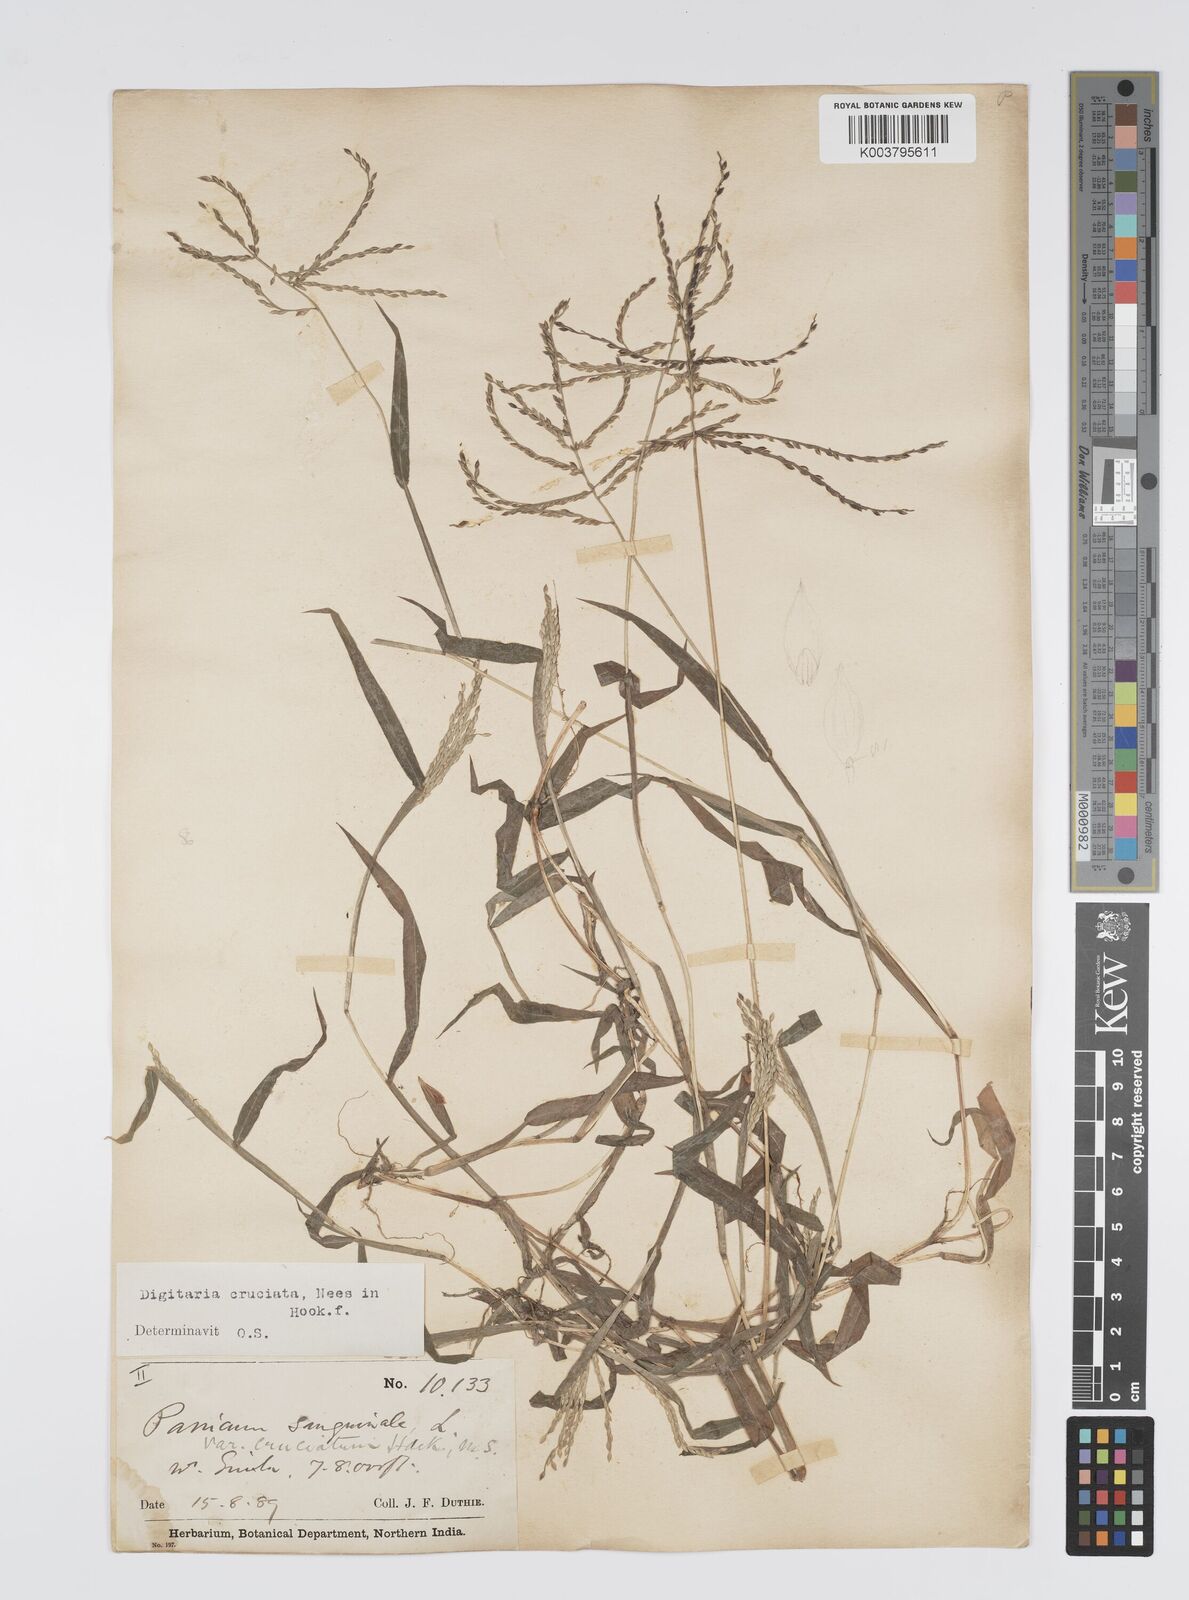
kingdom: Plantae
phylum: Tracheophyta
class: Liliopsida
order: Poales
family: Poaceae
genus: Digitaria
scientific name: Digitaria sanguinalis
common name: Hairy crabgrass
